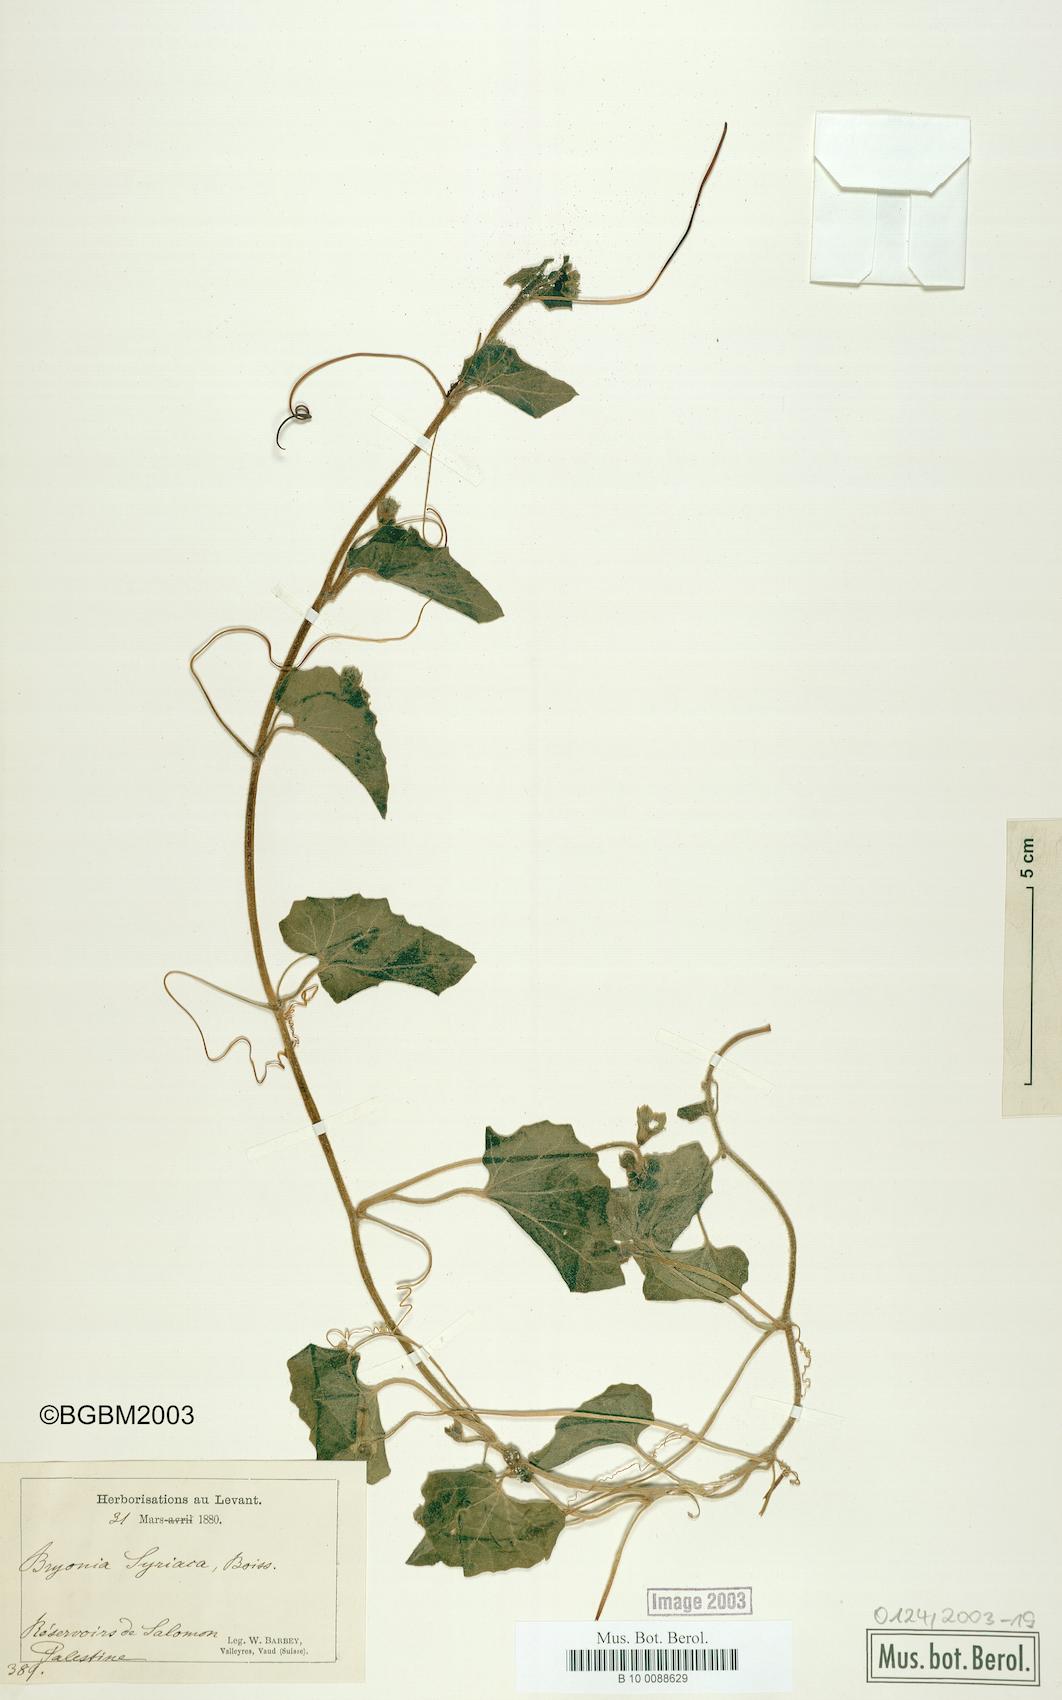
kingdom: Plantae
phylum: Tracheophyta
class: Magnoliopsida
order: Cucurbitales
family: Cucurbitaceae
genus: Bryonia
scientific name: Bryonia syriaca
